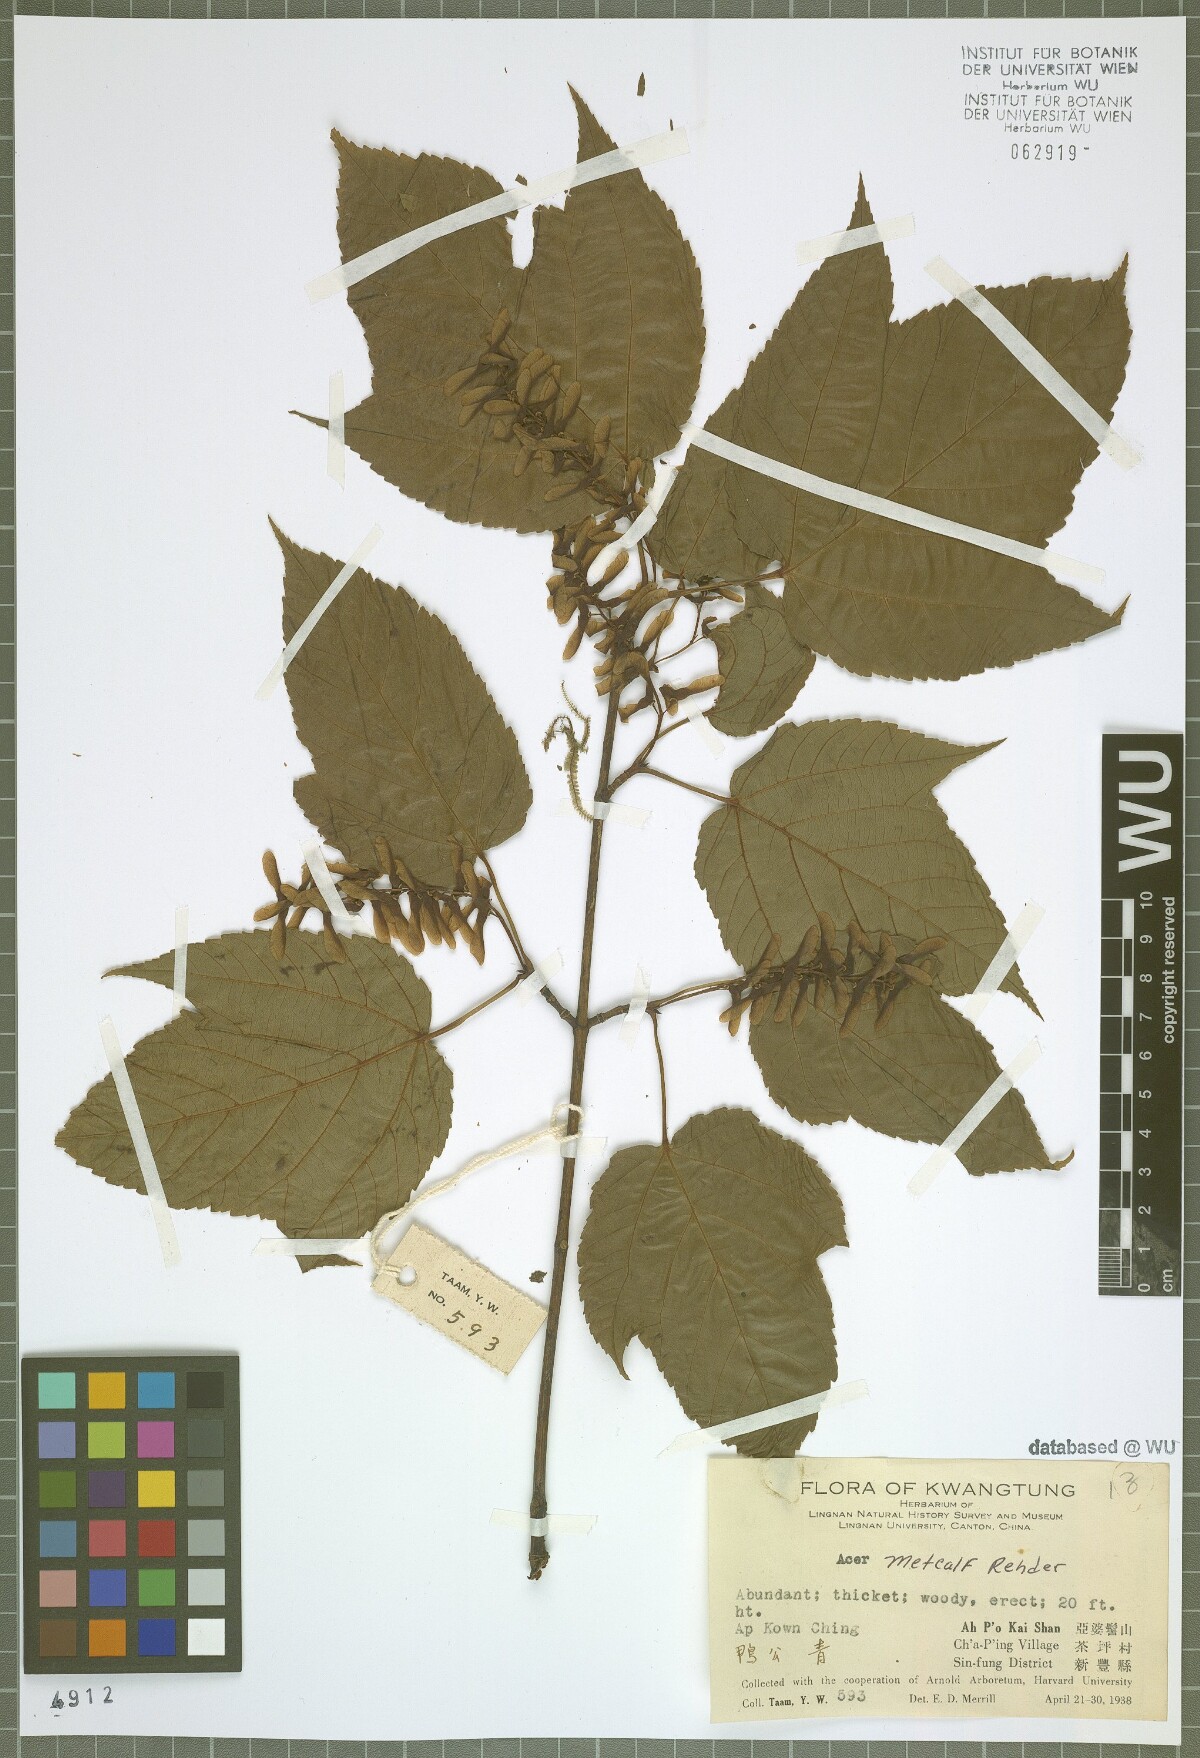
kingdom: Plantae
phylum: Tracheophyta
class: Magnoliopsida
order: Sapindales
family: Sapindaceae
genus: Acer
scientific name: Acer metcalfii
